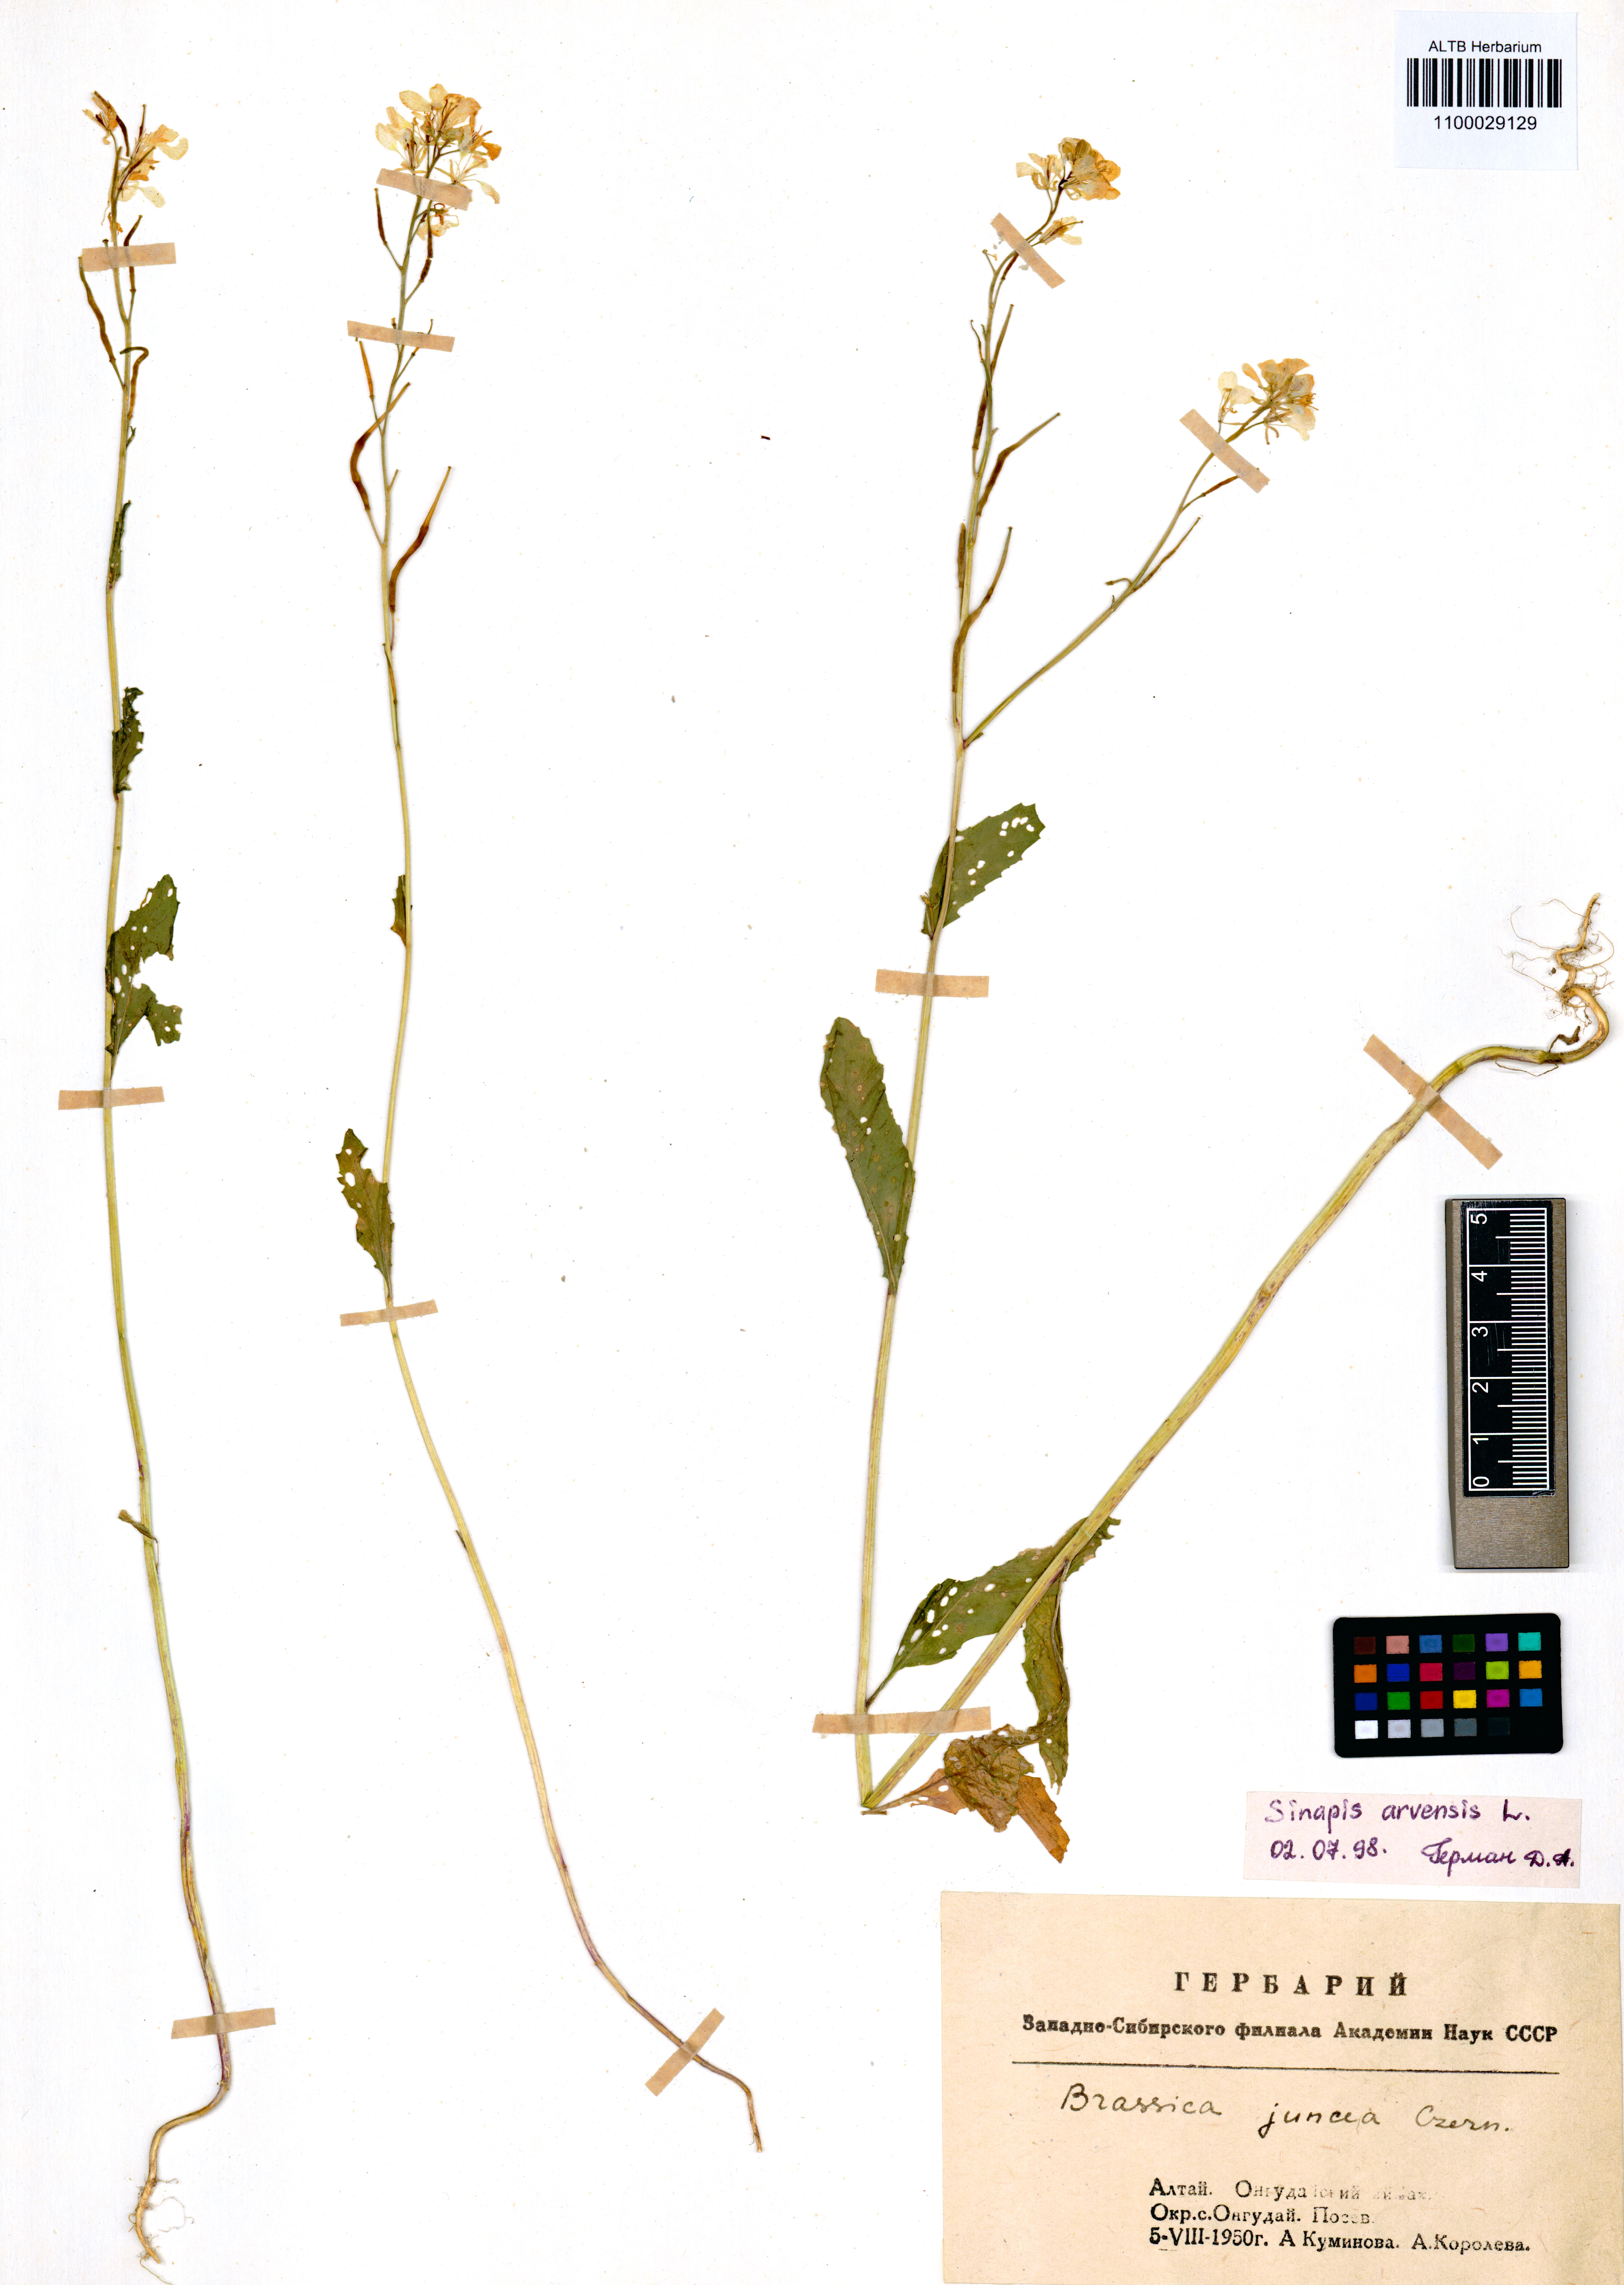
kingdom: Plantae
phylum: Tracheophyta
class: Magnoliopsida
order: Brassicales
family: Brassicaceae
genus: Sinapis
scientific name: Sinapis arvensis
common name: Charlock
